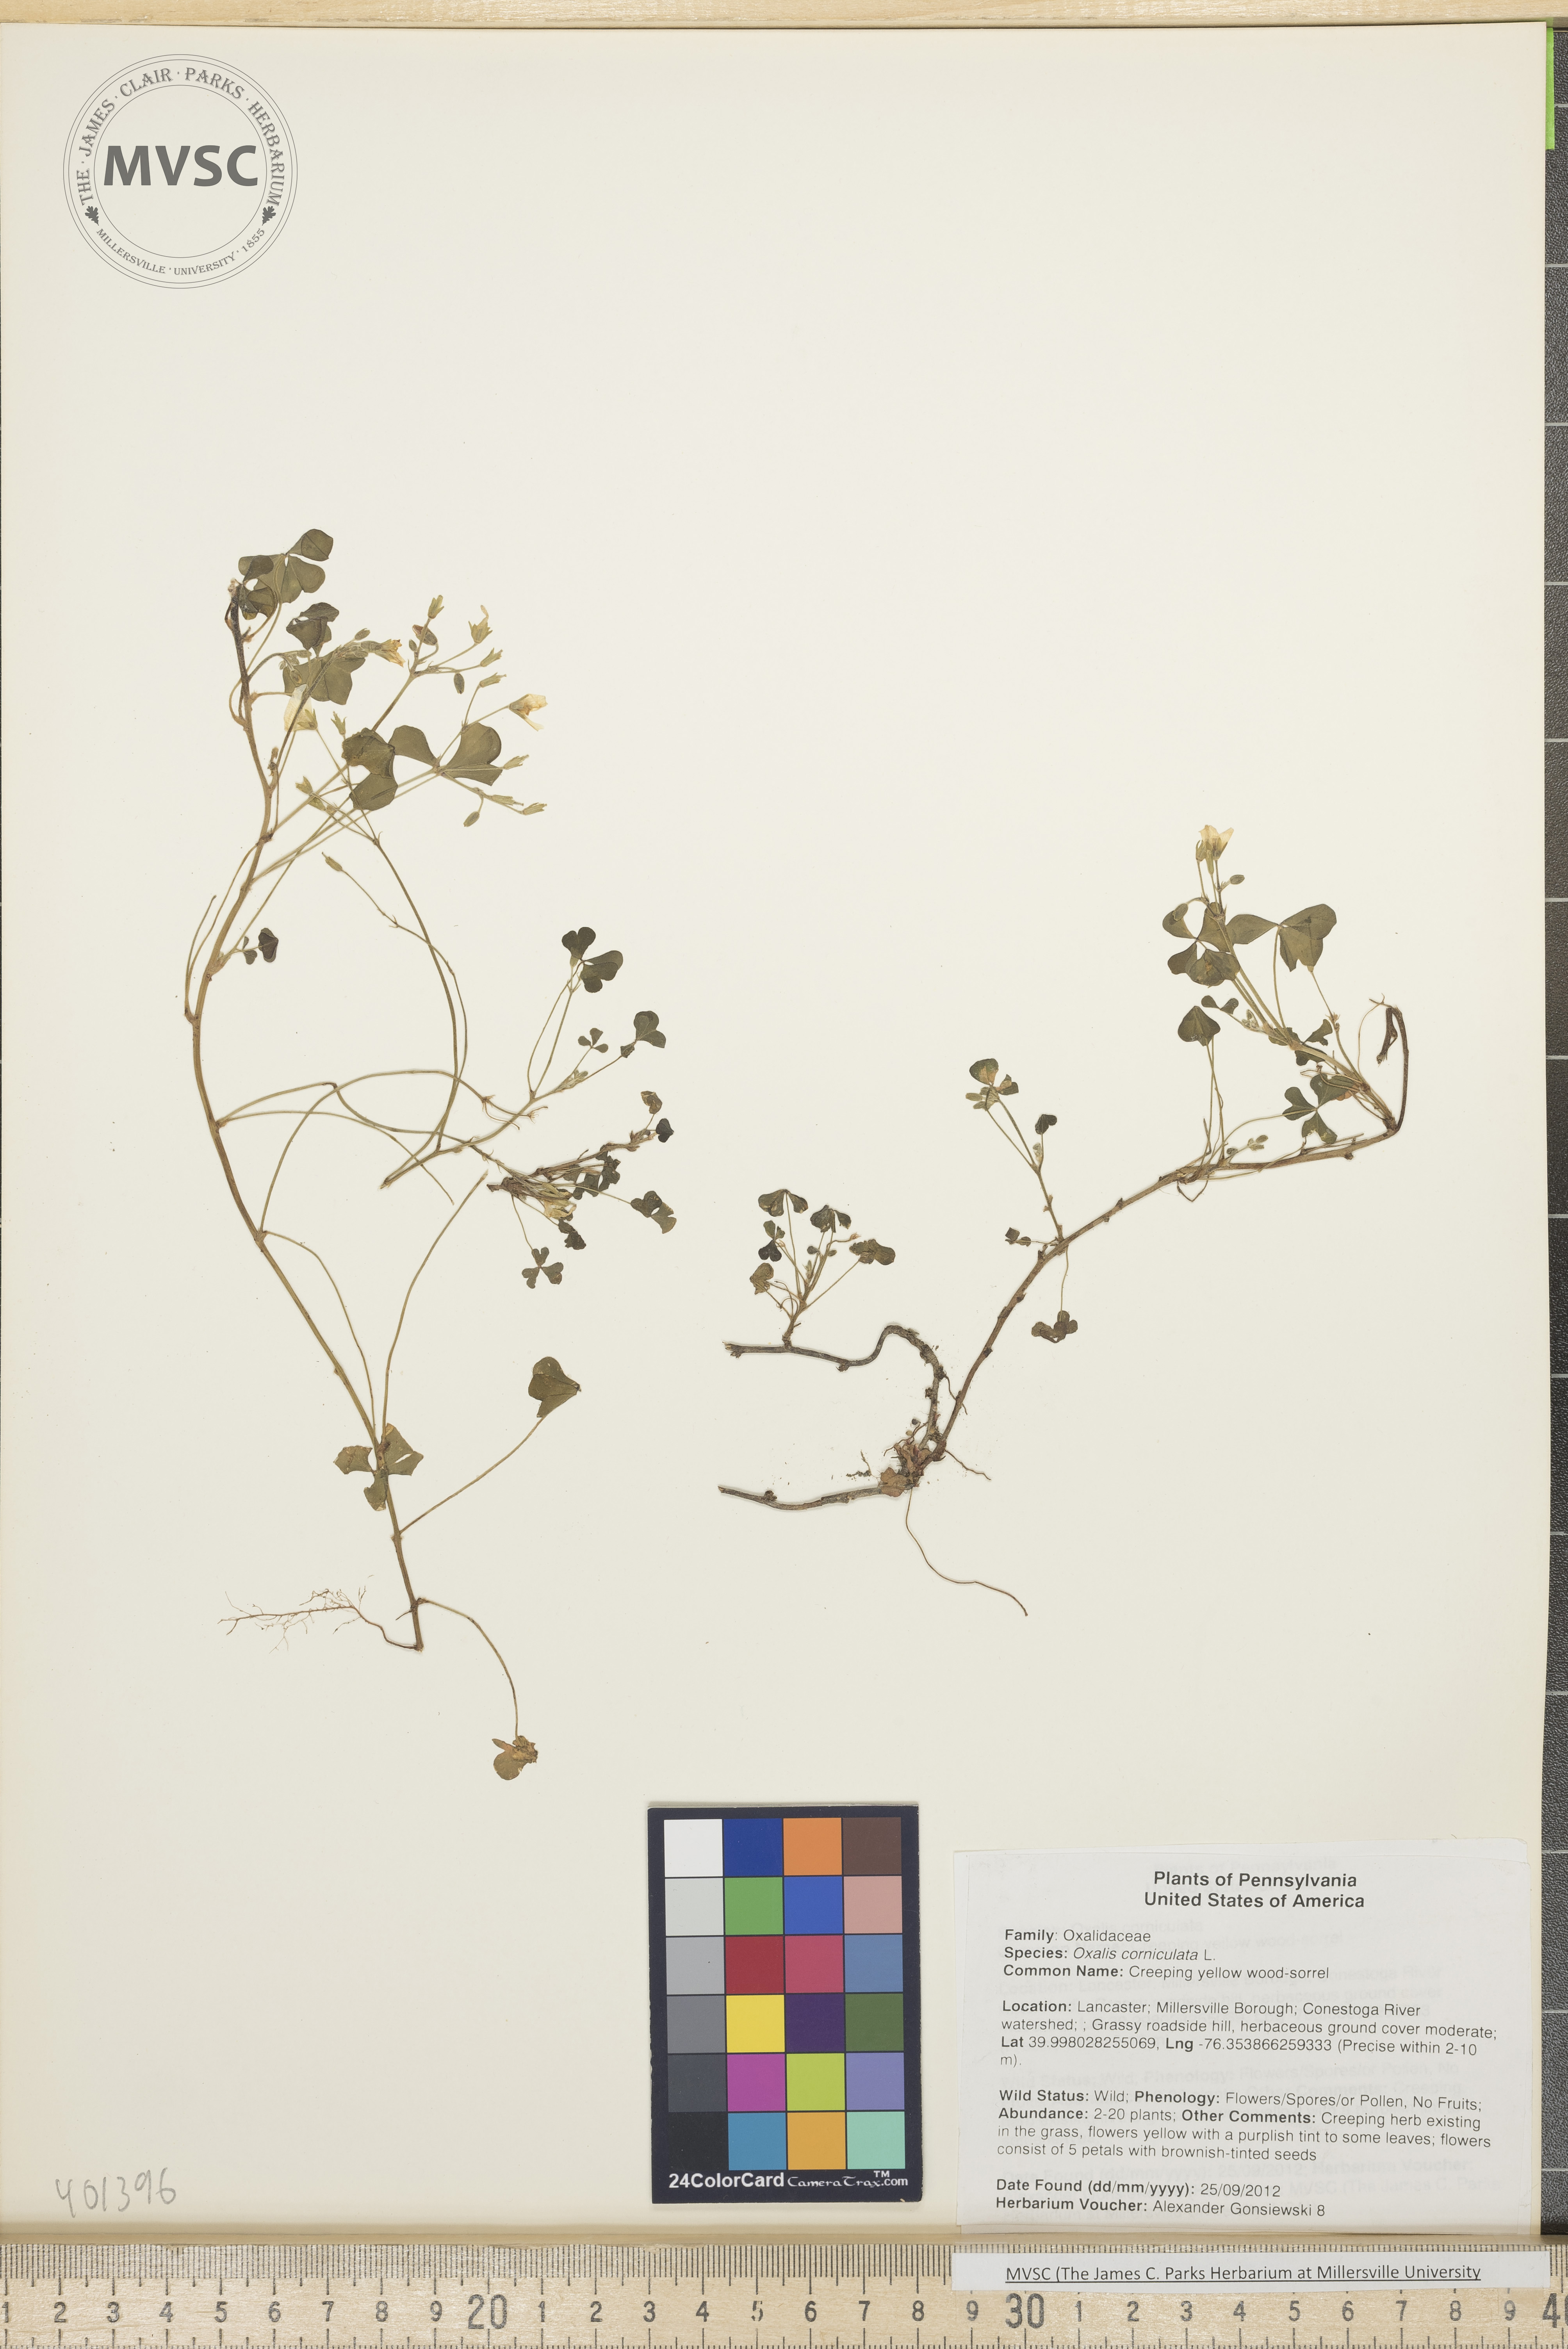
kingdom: Plantae
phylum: Tracheophyta
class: Magnoliopsida
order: Oxalidales
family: Oxalidaceae
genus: Oxalis
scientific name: Oxalis corniculata
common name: Creeping yellow wood-sorrel
